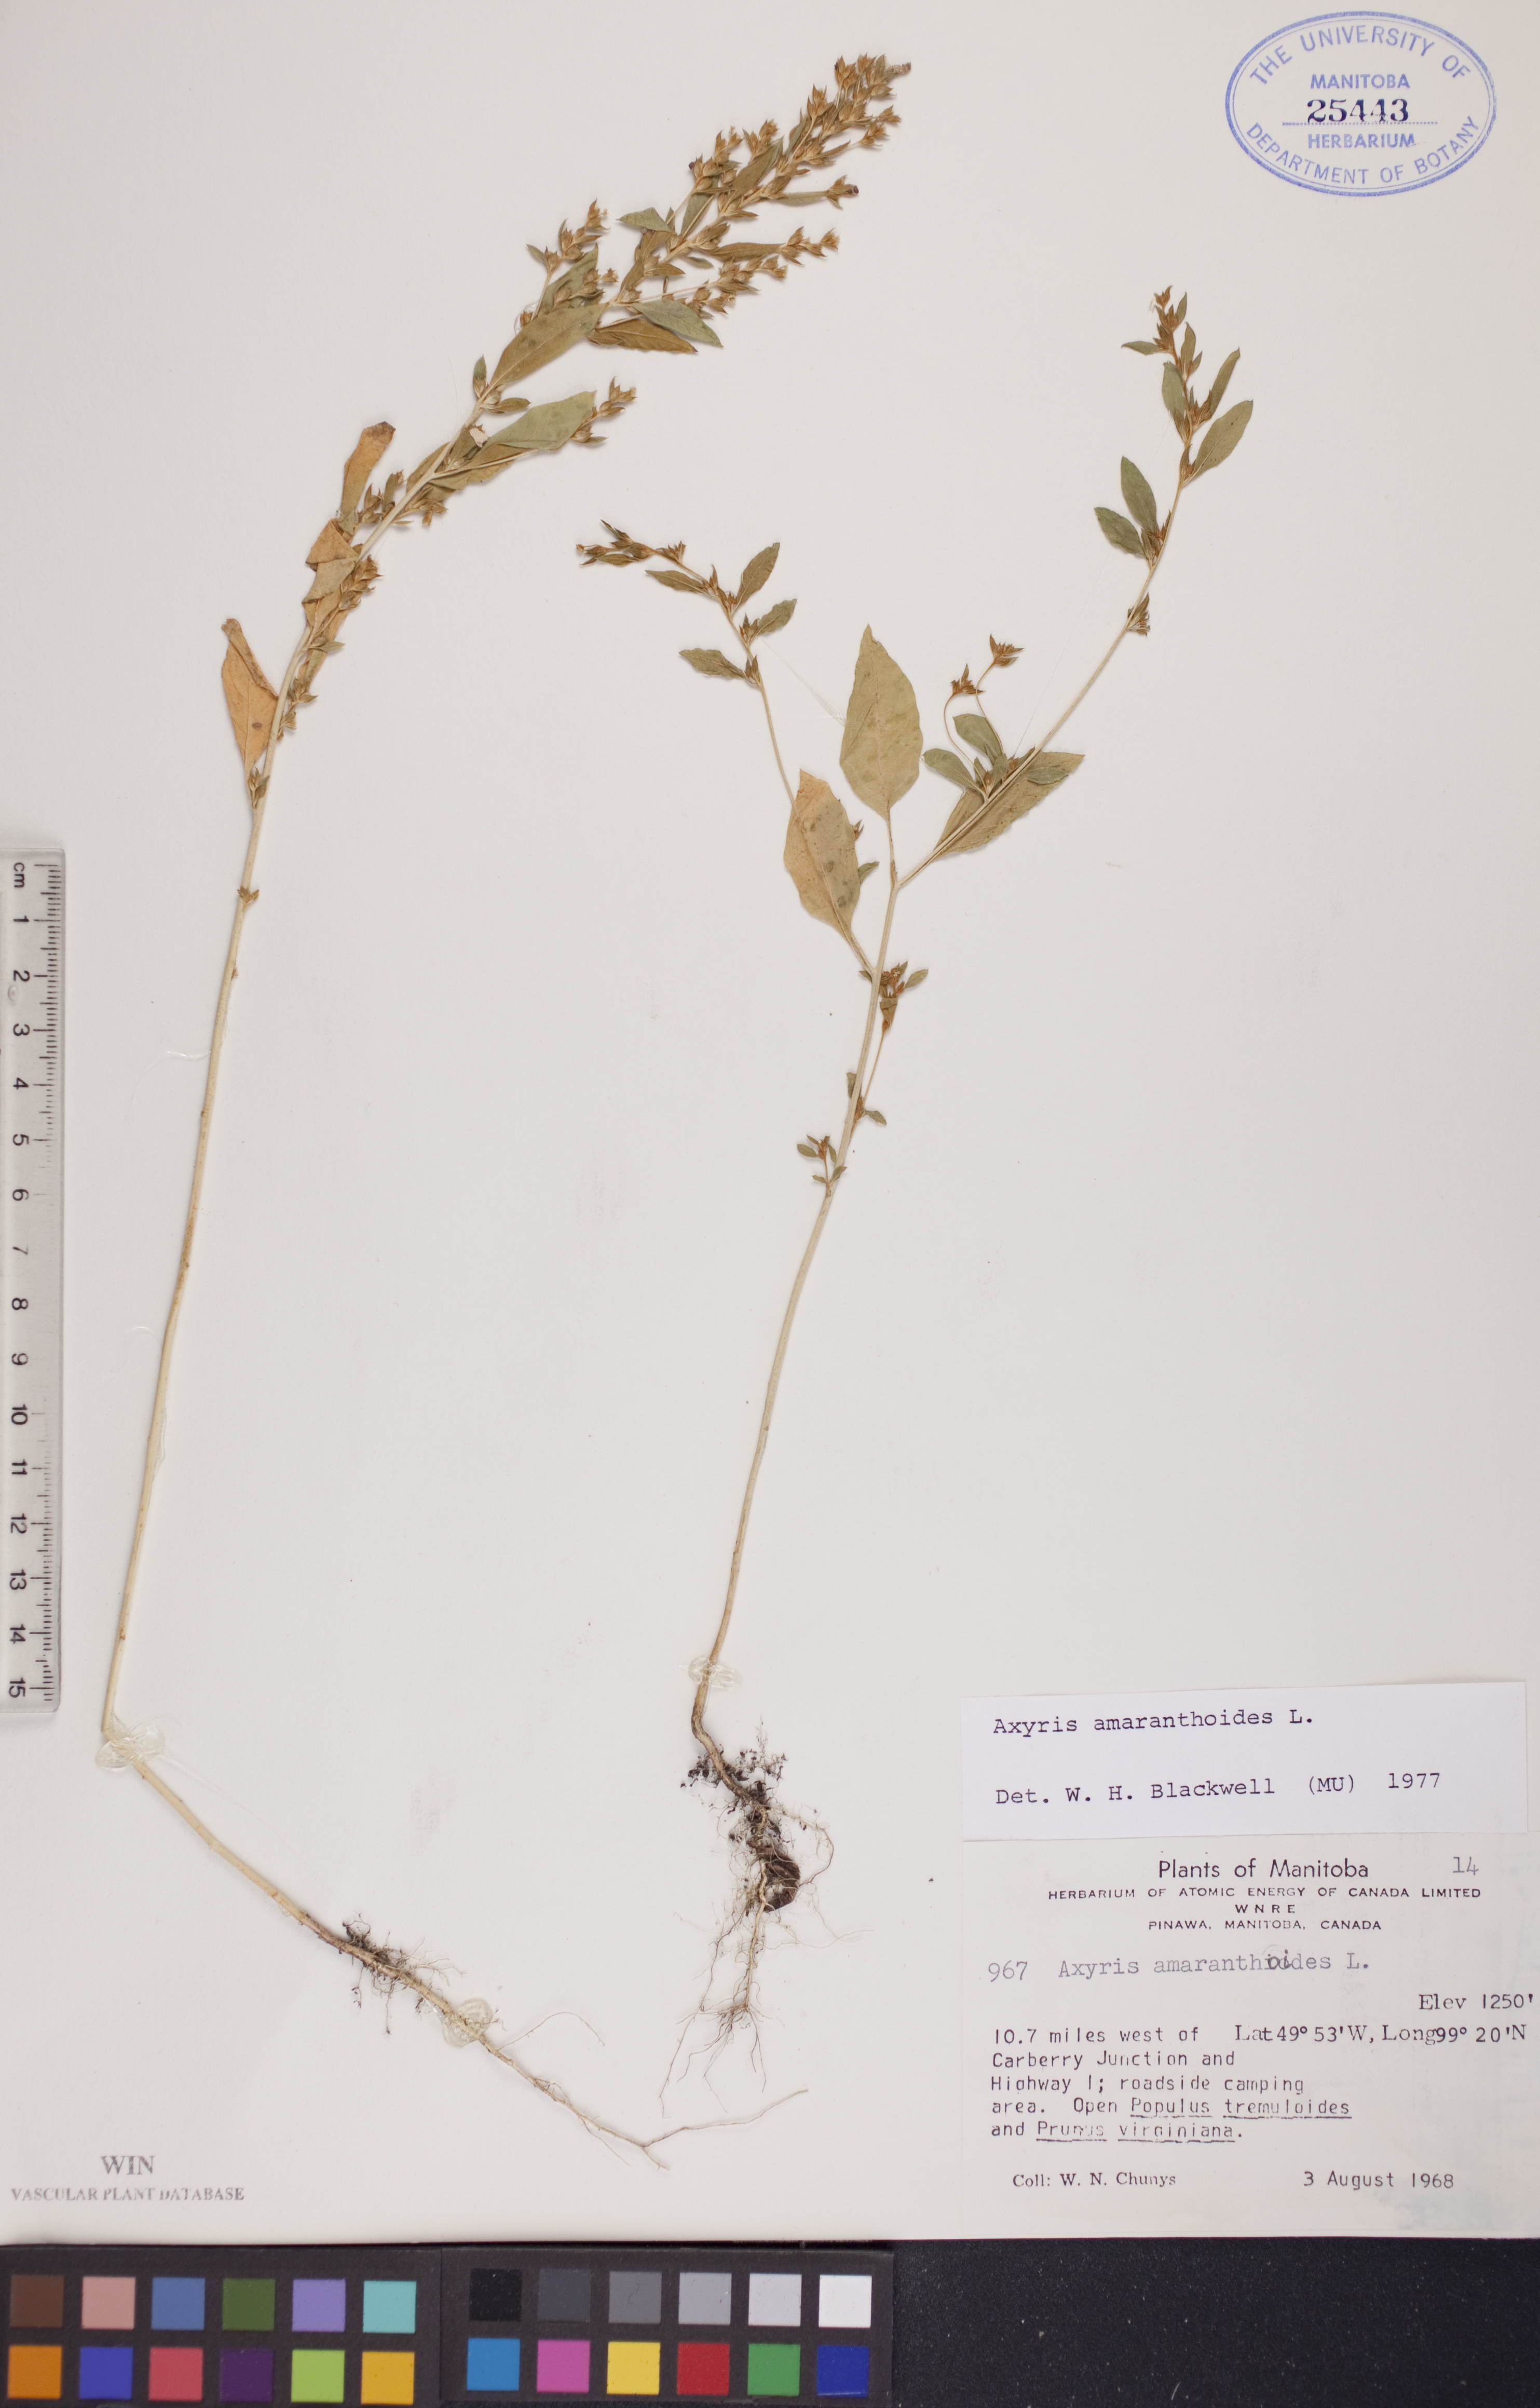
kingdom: Plantae
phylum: Tracheophyta
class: Magnoliopsida
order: Caryophyllales
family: Amaranthaceae
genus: Axyris
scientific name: Axyris amaranthoides
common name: Russian pigweed
